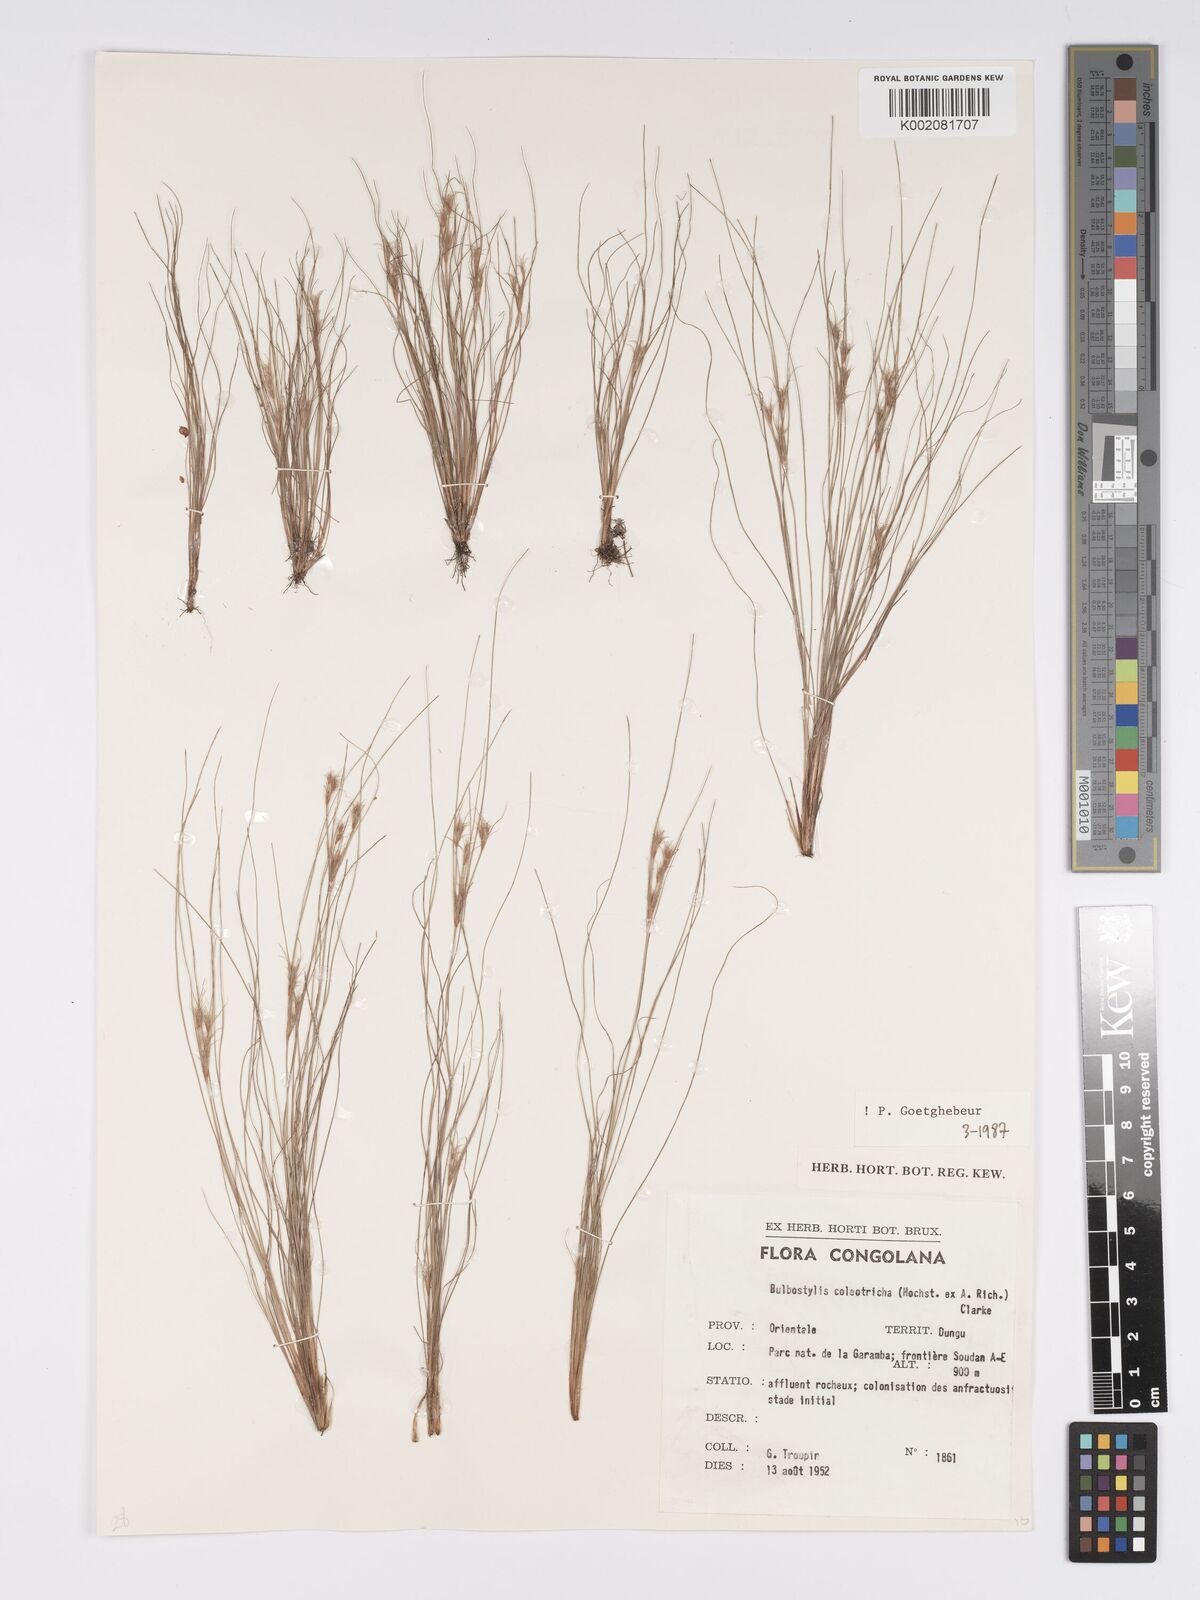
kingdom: Plantae
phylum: Tracheophyta
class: Liliopsida
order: Poales
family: Cyperaceae
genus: Bulbostylis
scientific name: Bulbostylis coleotricha
